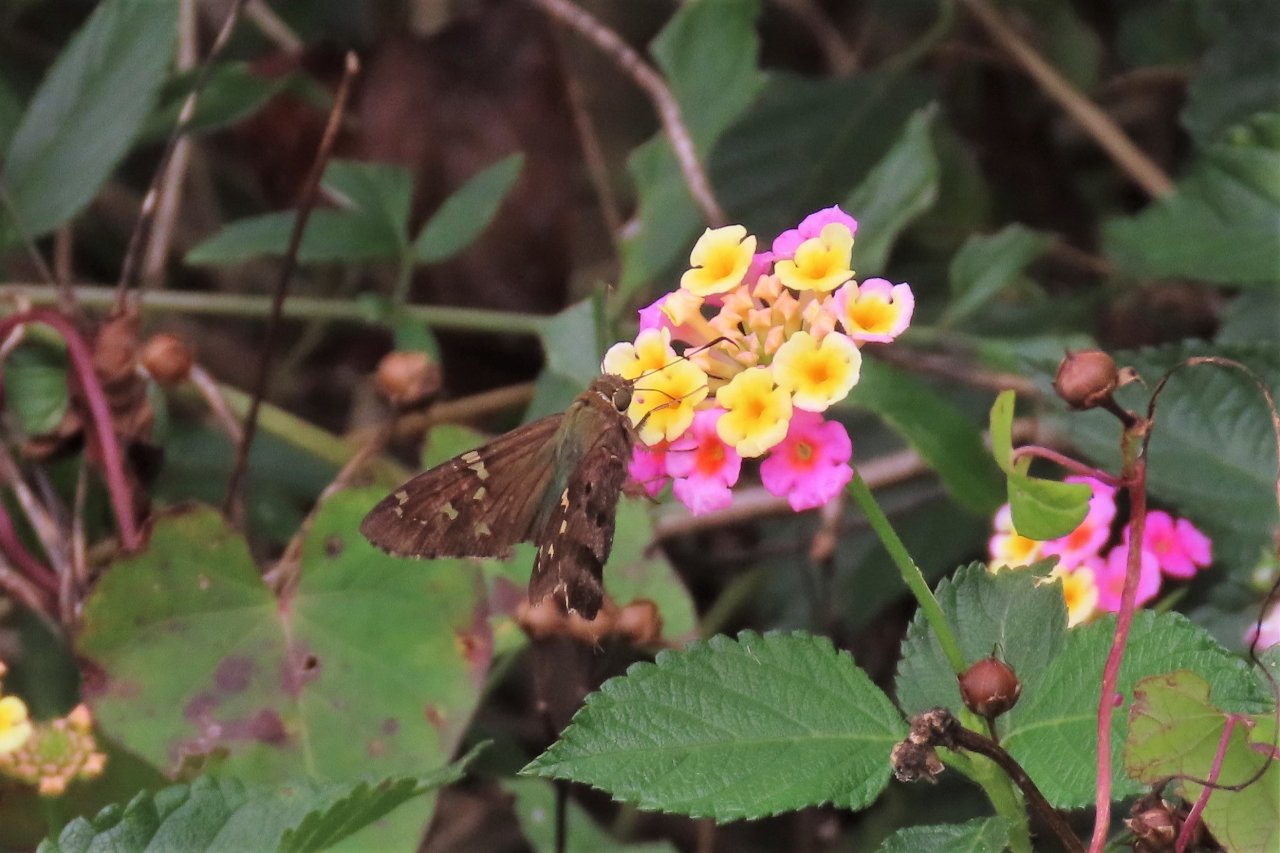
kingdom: Animalia
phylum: Arthropoda
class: Insecta
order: Lepidoptera
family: Hesperiidae
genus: Urbanus
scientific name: Urbanus proteus
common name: Long-tailed Skipper
